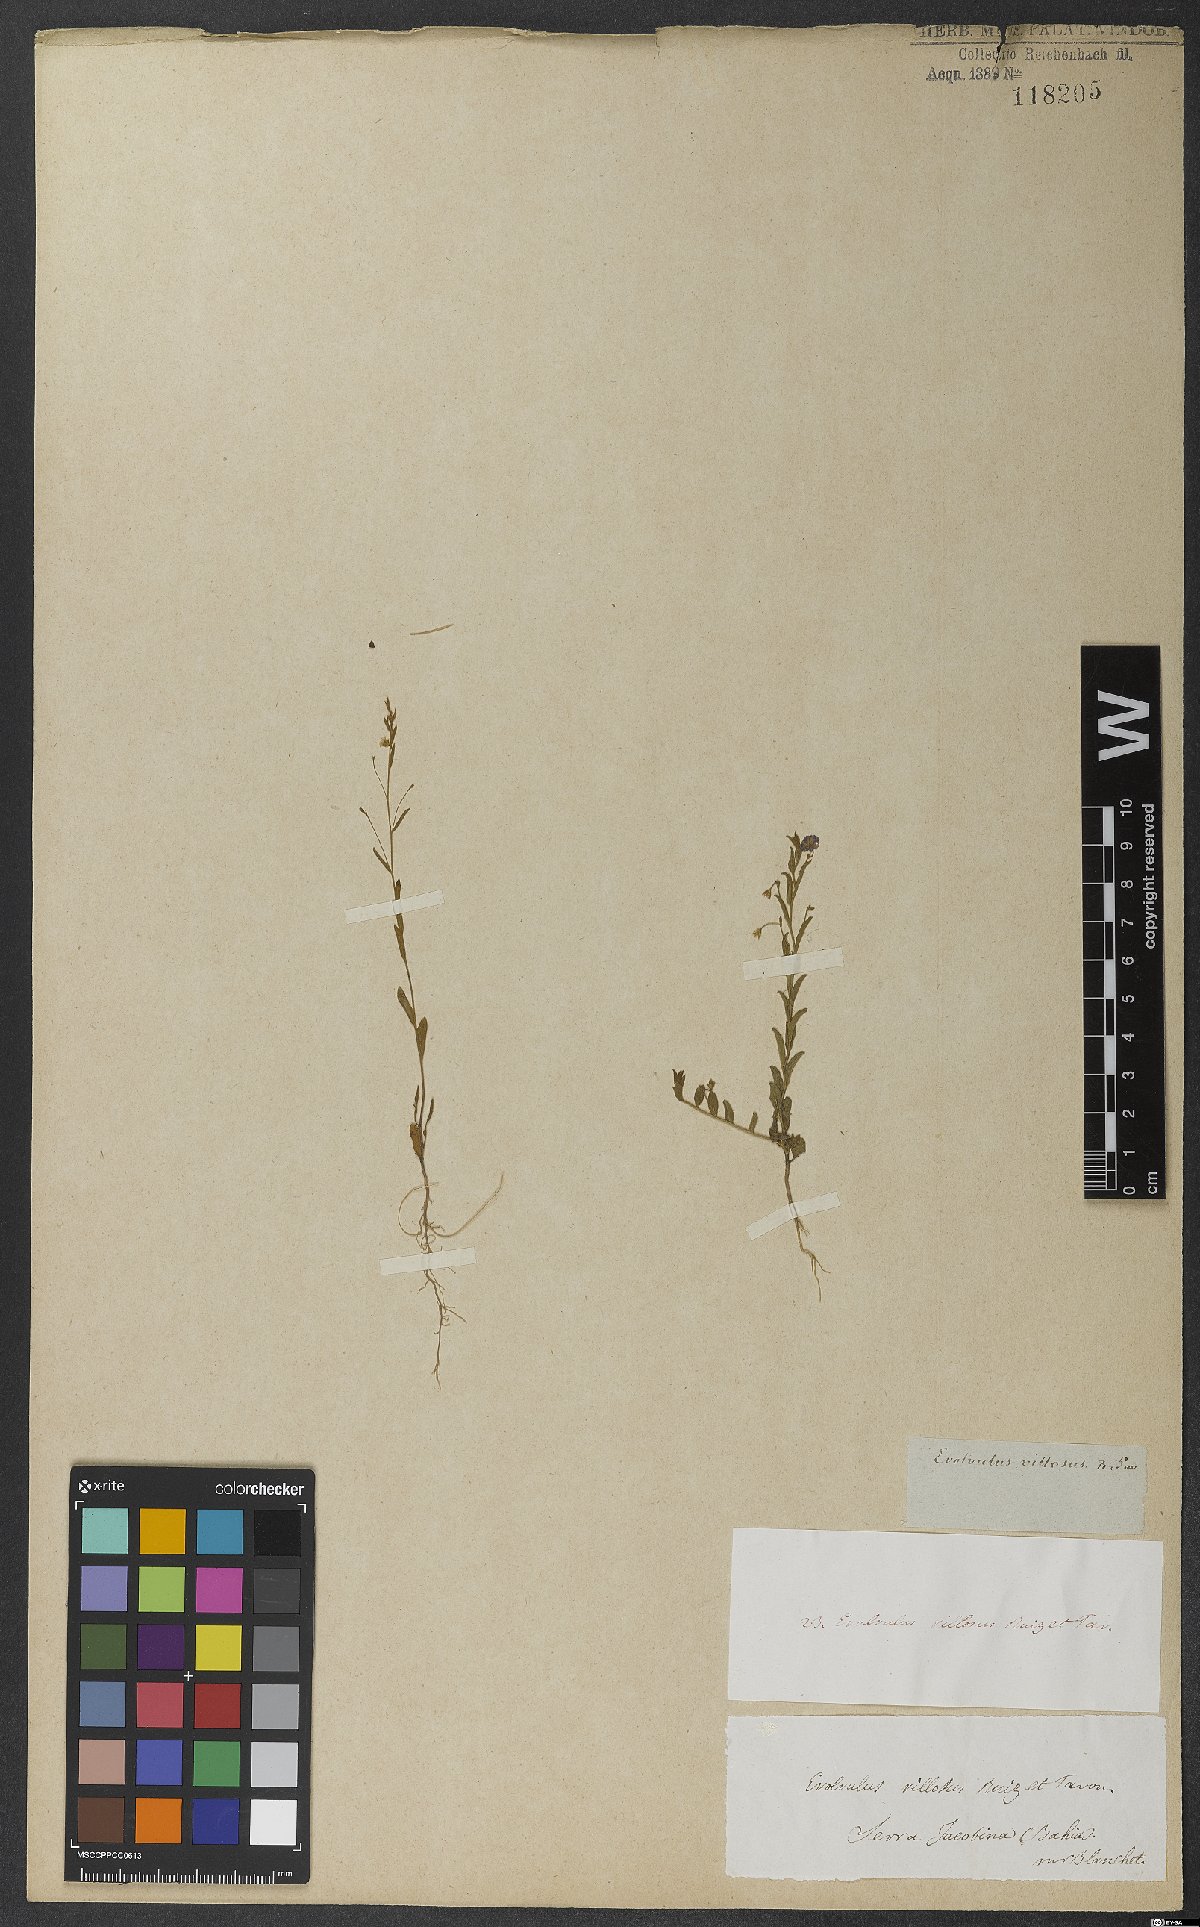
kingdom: Plantae
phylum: Tracheophyta
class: Magnoliopsida
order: Solanales
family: Convolvulaceae
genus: Evolvulus
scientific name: Evolvulus villosus
